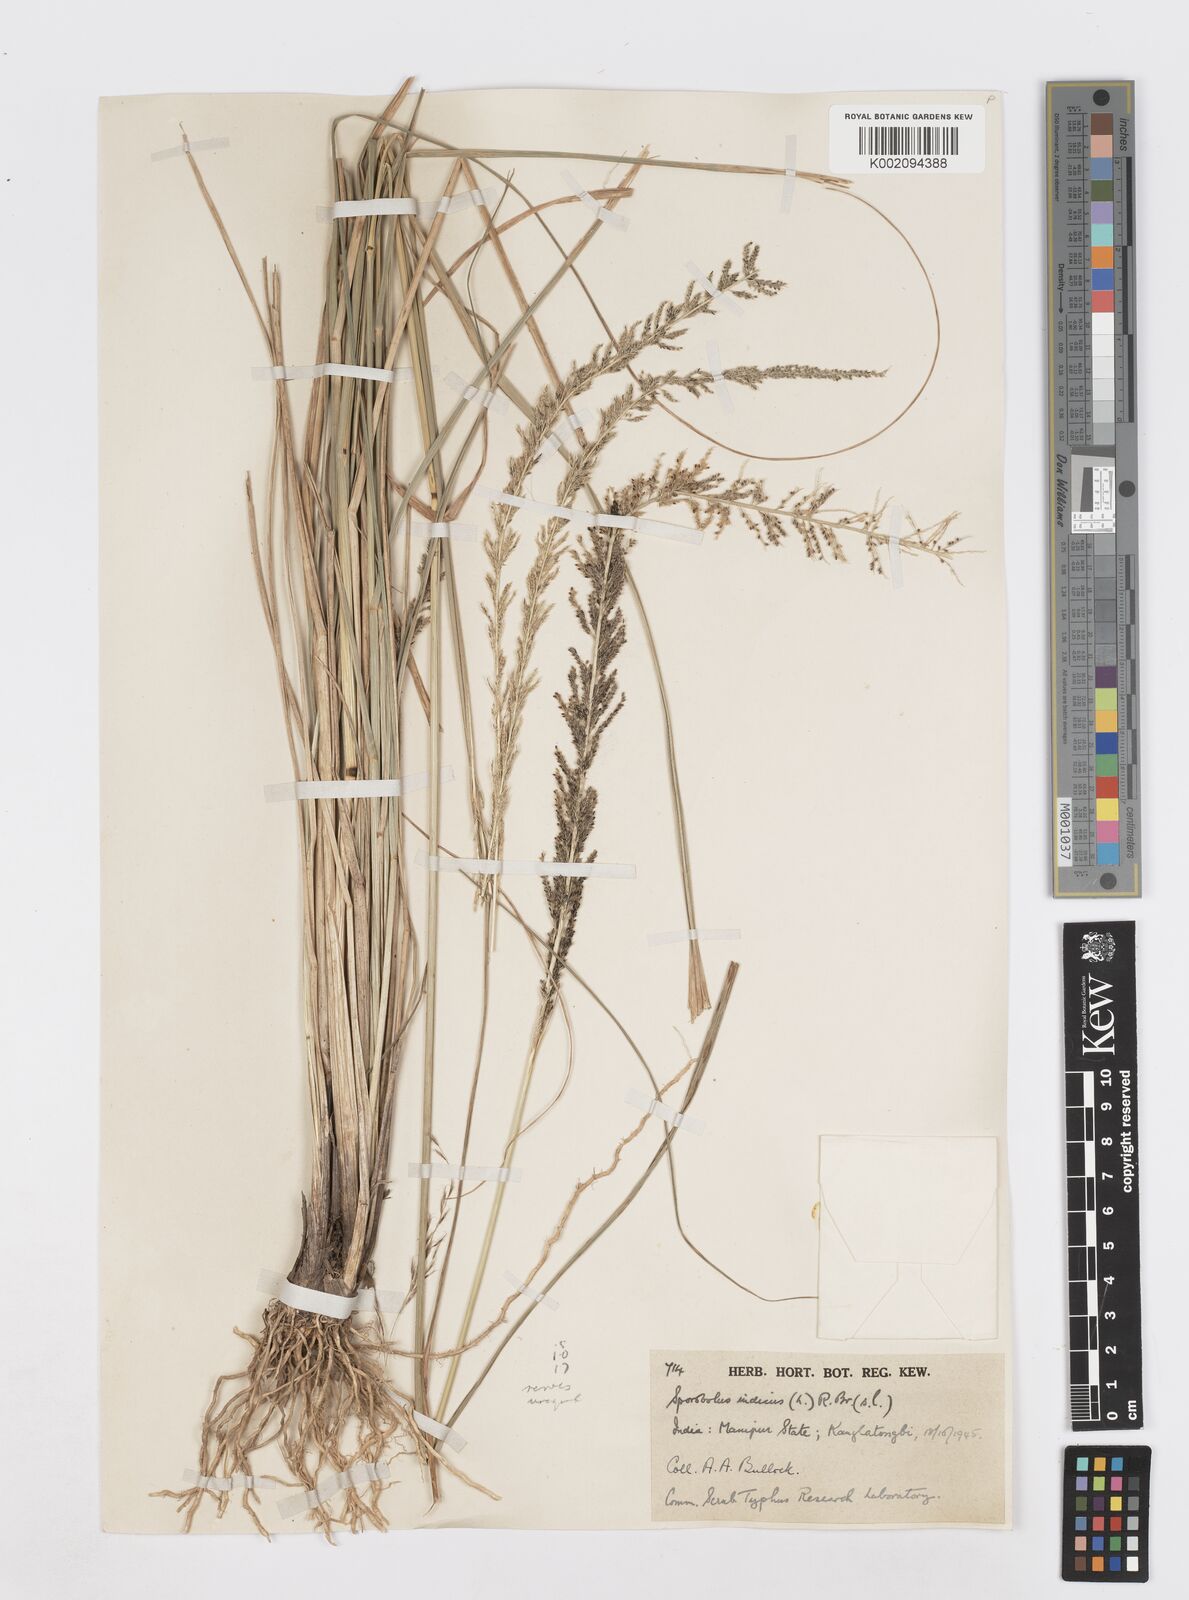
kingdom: Plantae
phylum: Tracheophyta
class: Liliopsida
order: Poales
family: Poaceae
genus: Sporobolus
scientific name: Sporobolus fertilis
